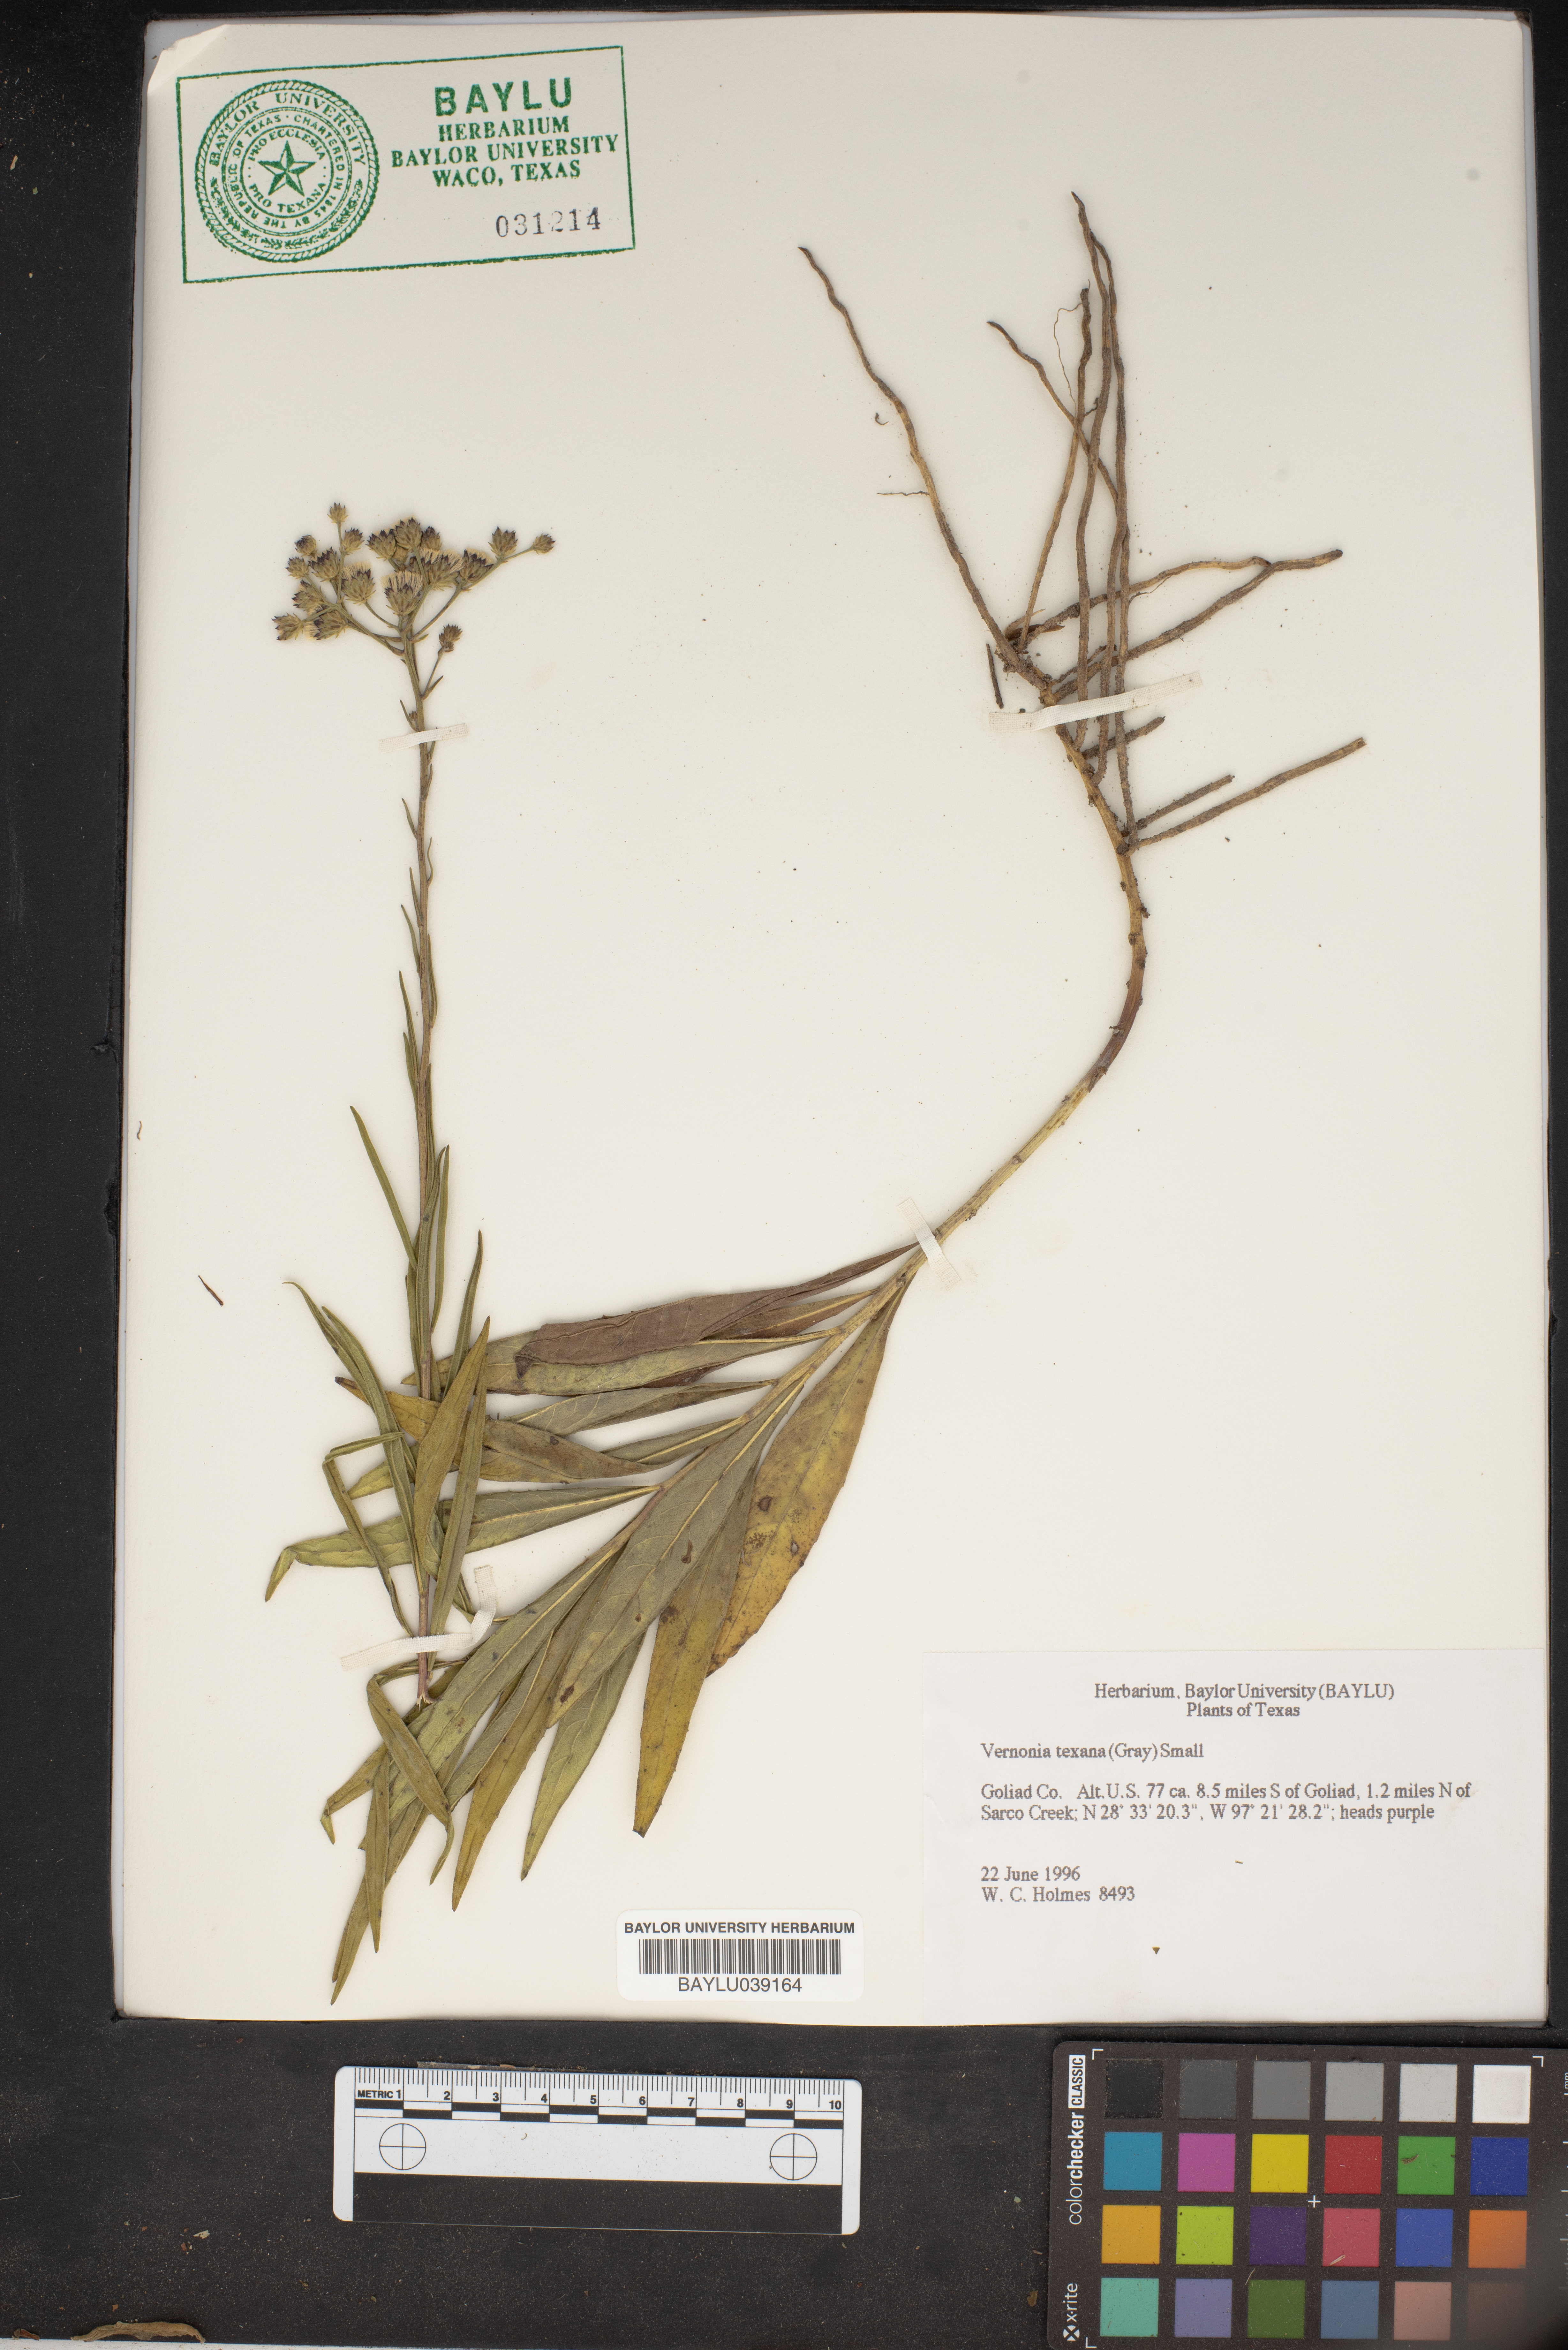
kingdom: Plantae
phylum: Tracheophyta
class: Magnoliopsida
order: Asterales
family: Asteraceae
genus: Vernonia
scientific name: Vernonia texana
